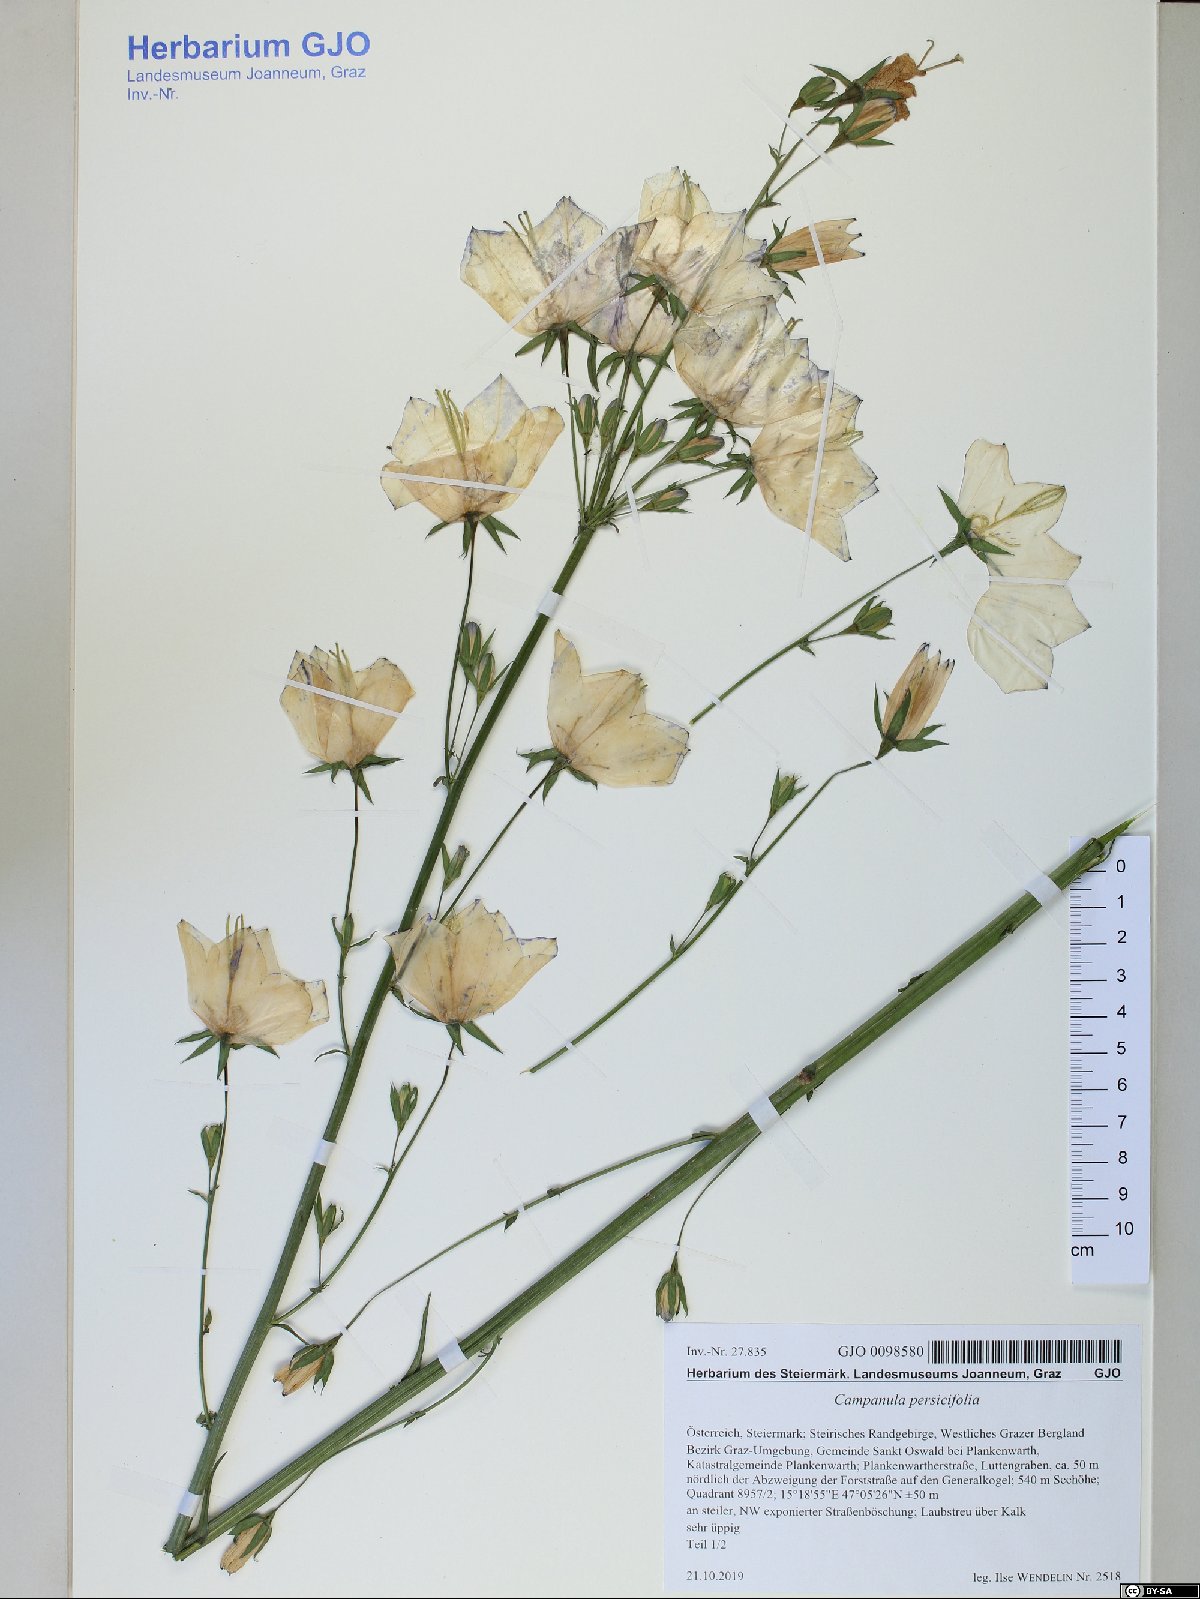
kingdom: Plantae
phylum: Tracheophyta
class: Magnoliopsida
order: Asterales
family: Campanulaceae
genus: Campanula
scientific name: Campanula persicifolia
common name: Peach-leaved bellflower
